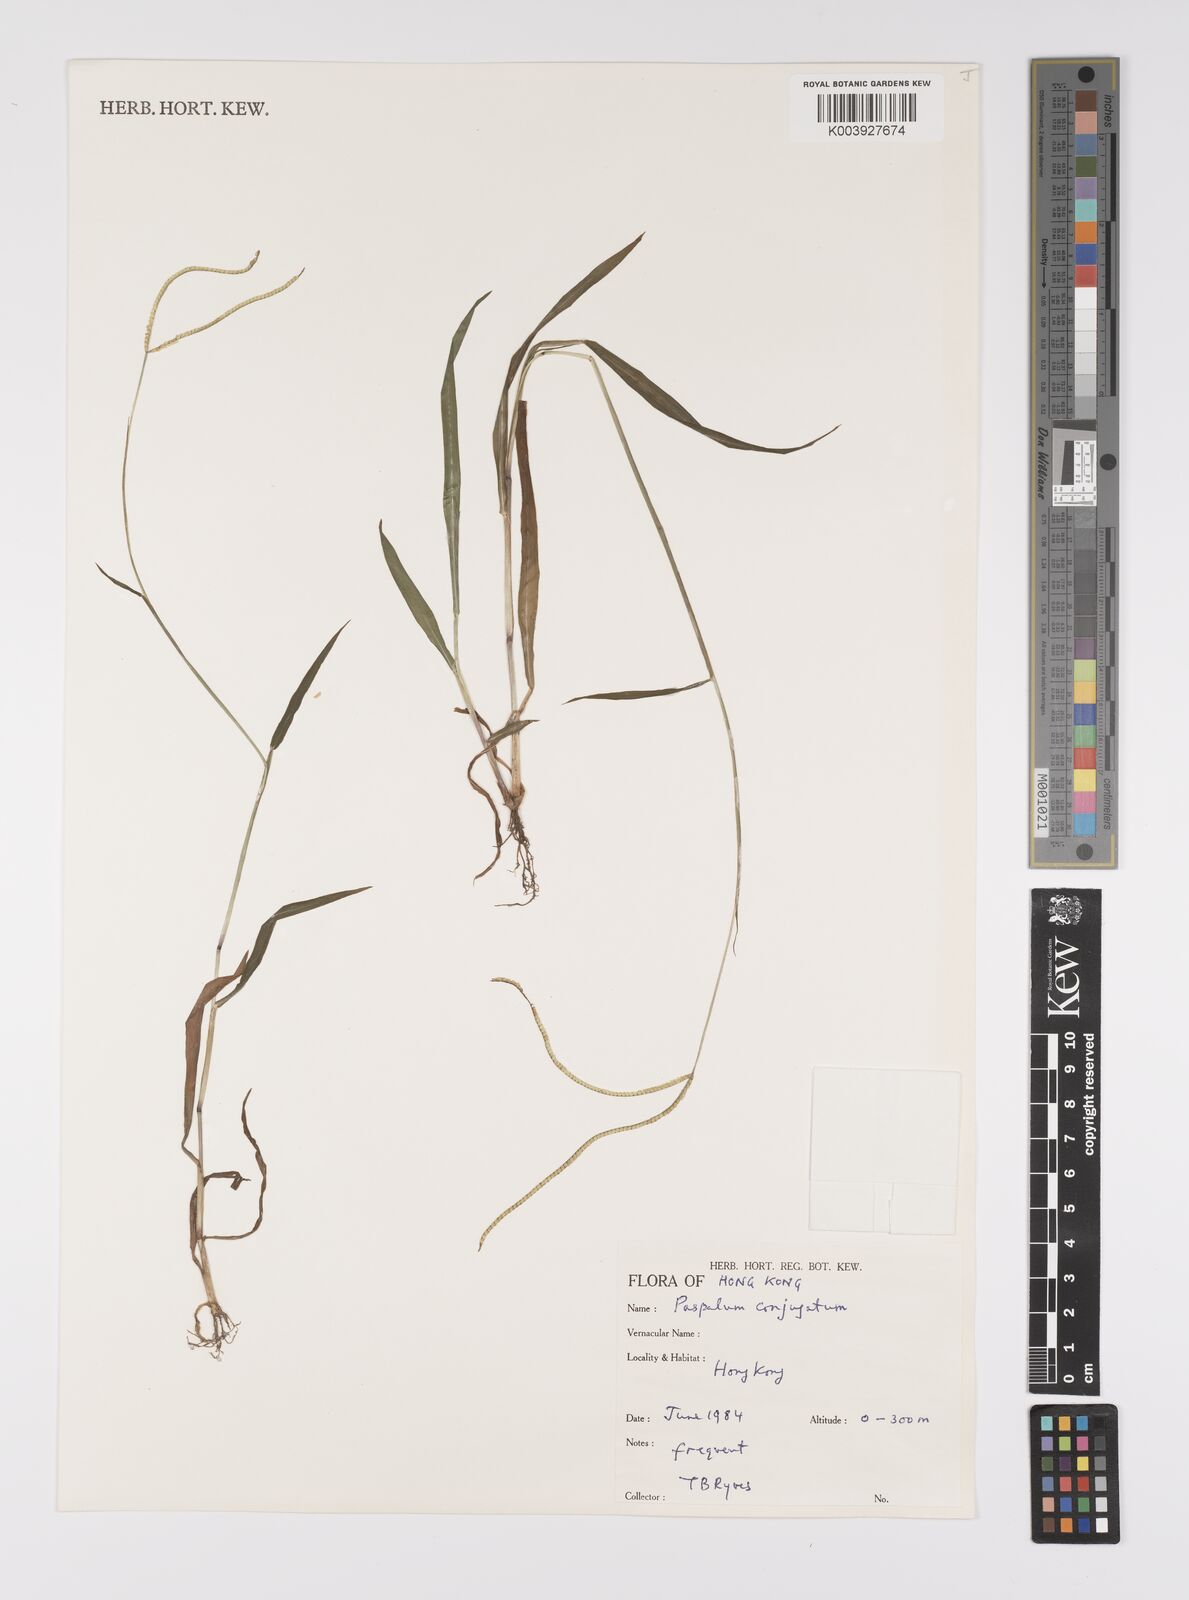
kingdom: Plantae
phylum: Tracheophyta
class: Liliopsida
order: Poales
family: Poaceae
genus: Paspalum
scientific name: Paspalum conjugatum
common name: Hilograss
